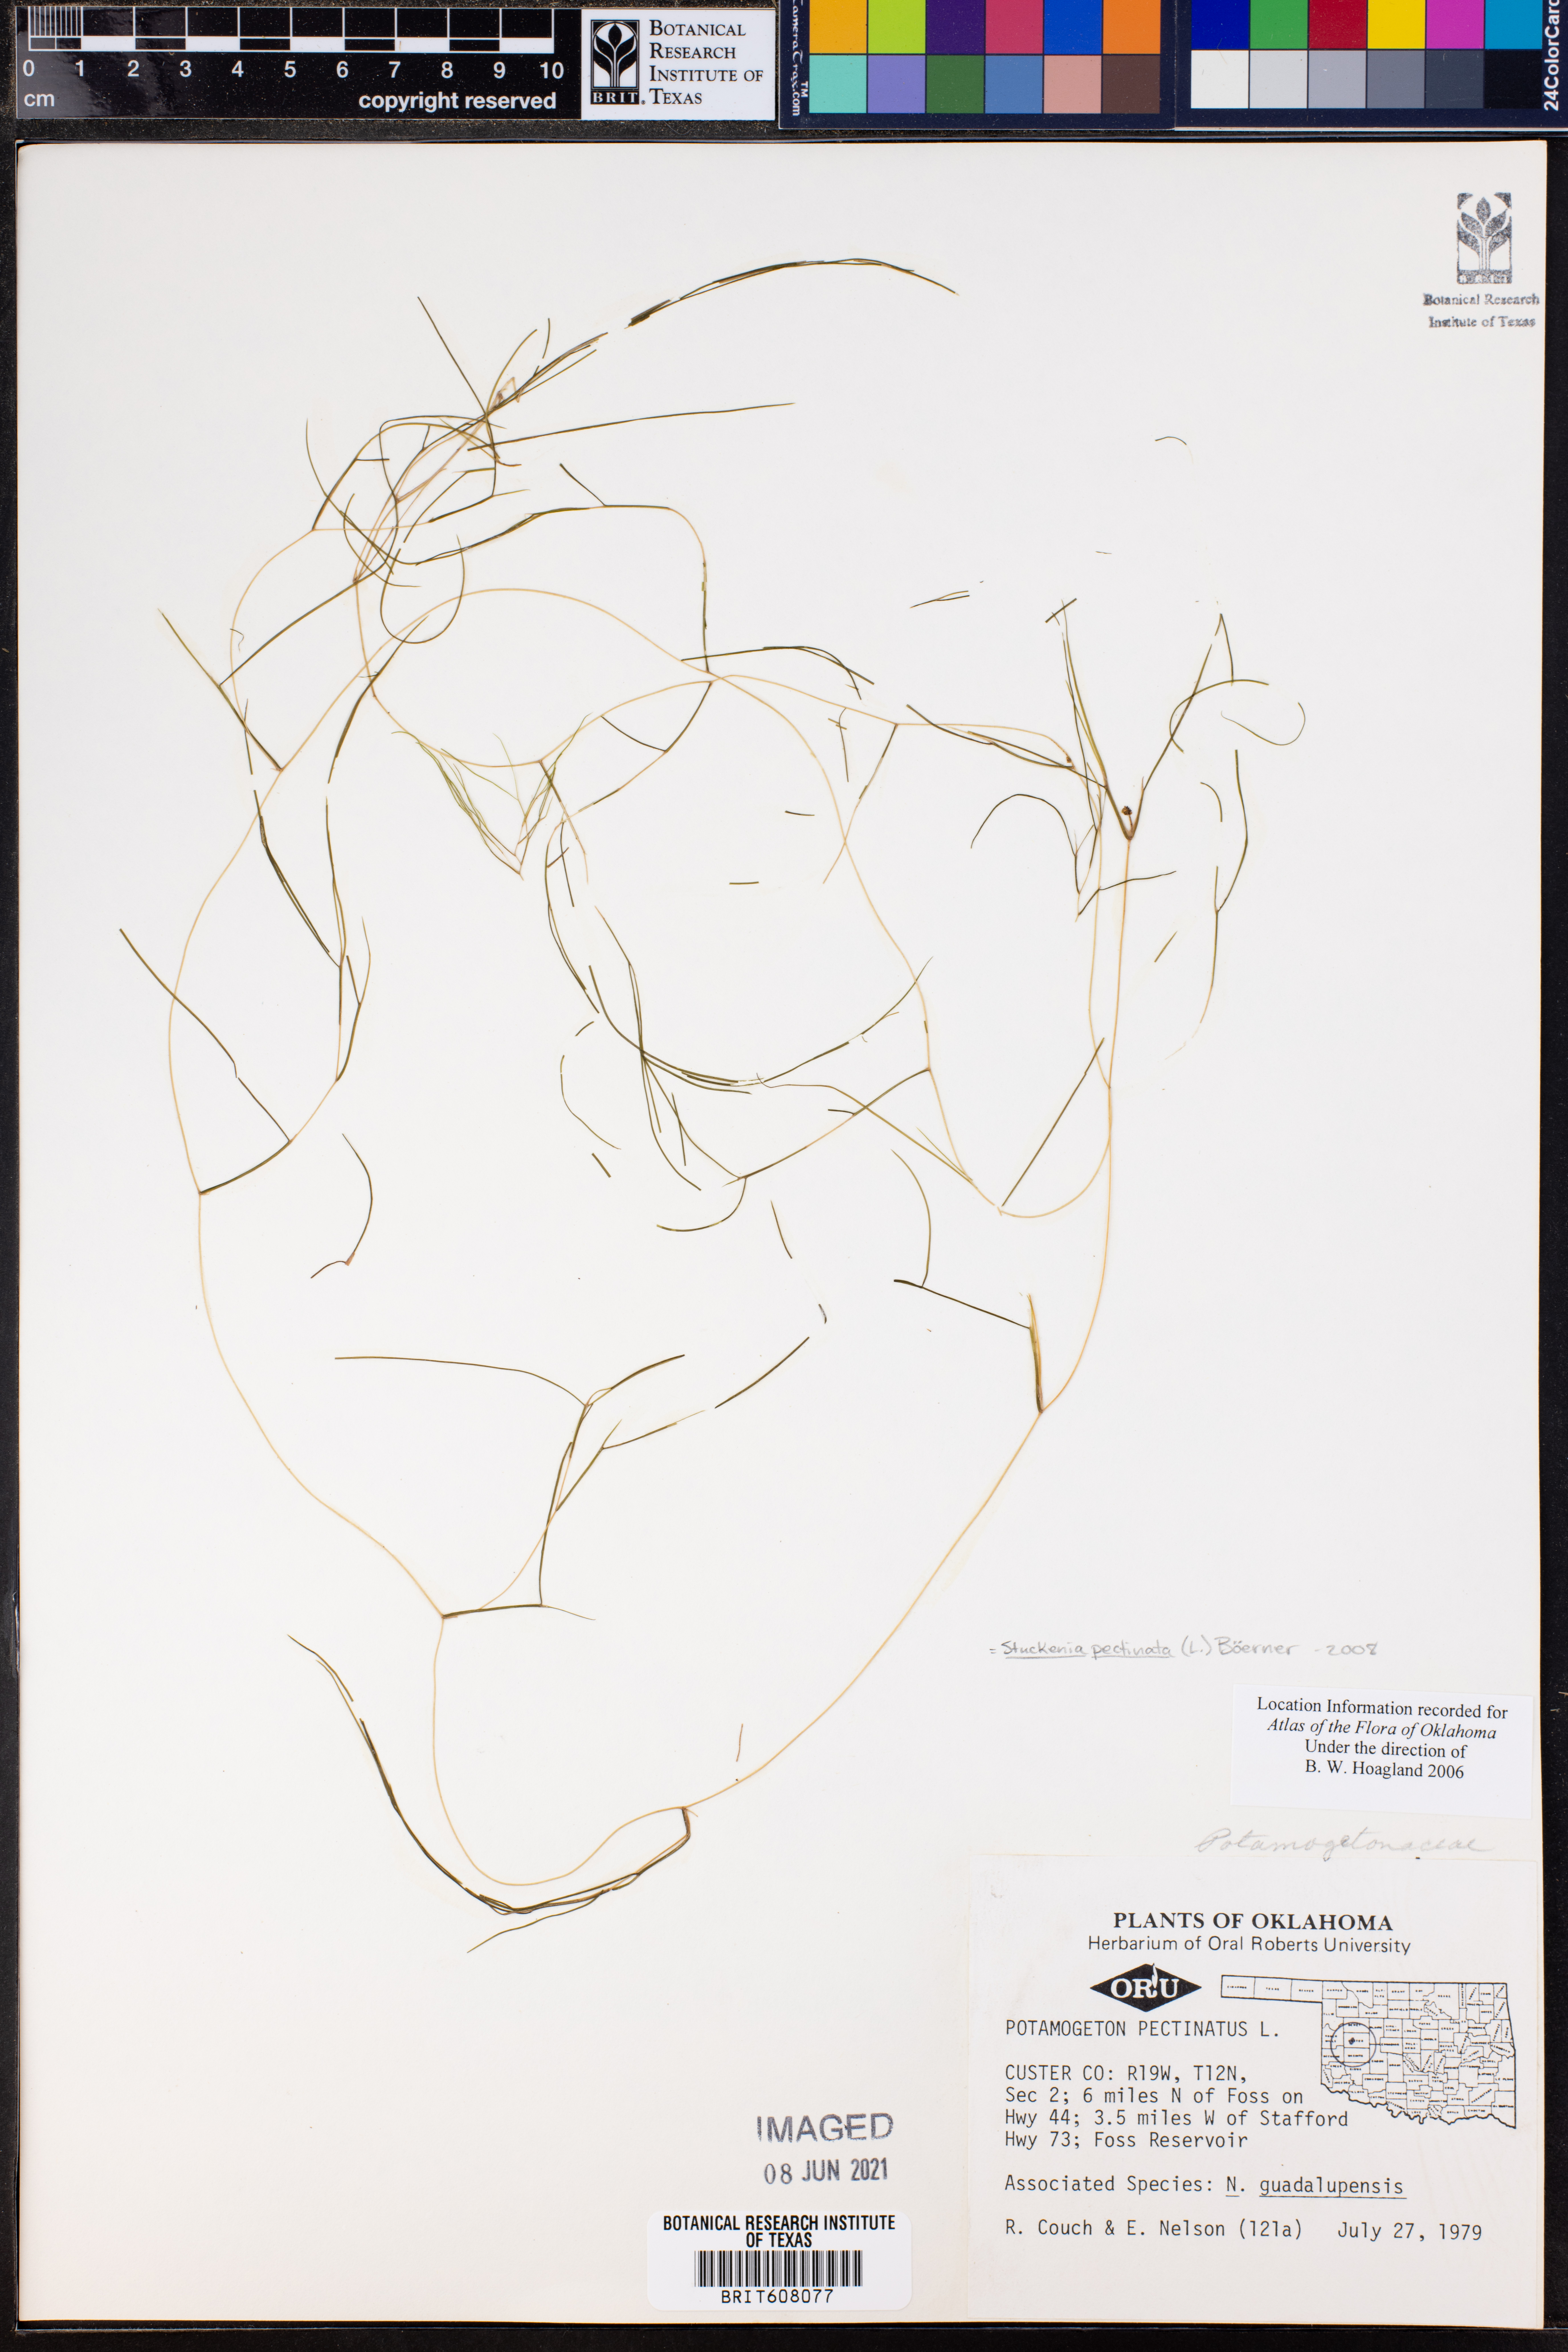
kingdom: Plantae
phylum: Tracheophyta
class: Liliopsida
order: Alismatales
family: Potamogetonaceae
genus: Stuckenia
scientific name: Stuckenia pectinata
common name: Sago pondweed
